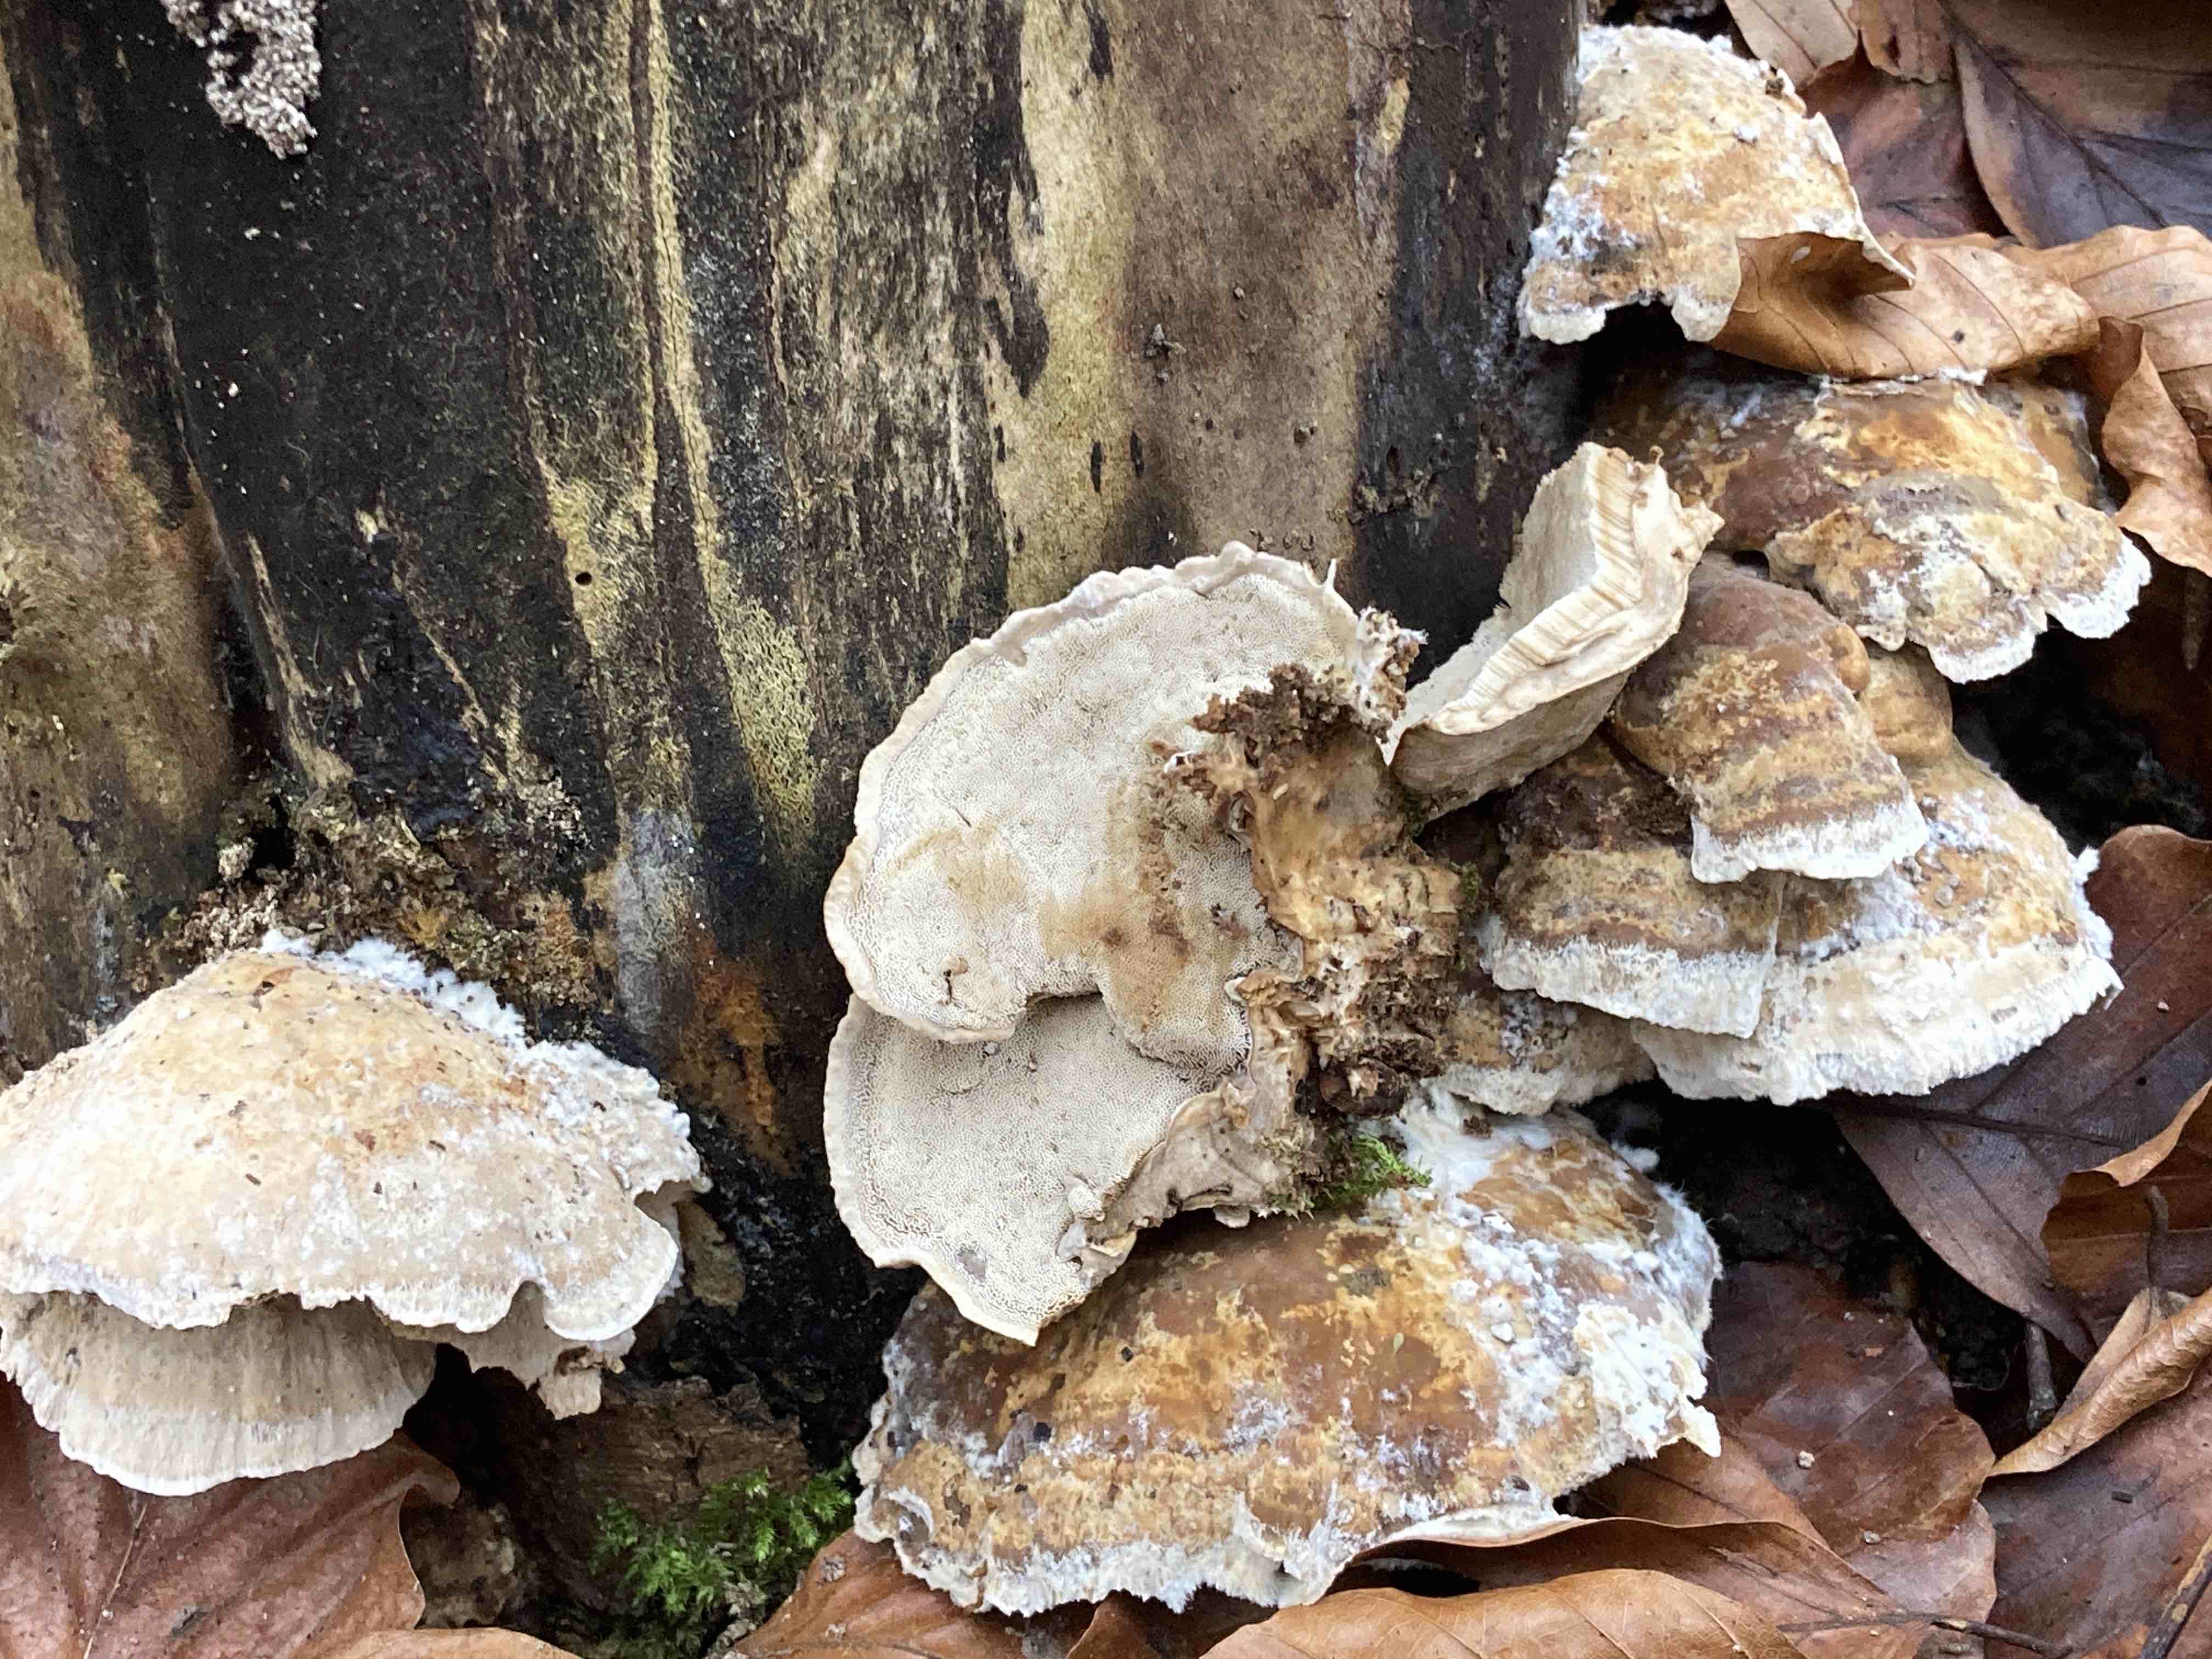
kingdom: Fungi
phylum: Basidiomycota
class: Agaricomycetes
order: Polyporales
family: Phanerochaetaceae
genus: Bjerkandera
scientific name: Bjerkandera fumosa
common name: grågul sodporesvamp
